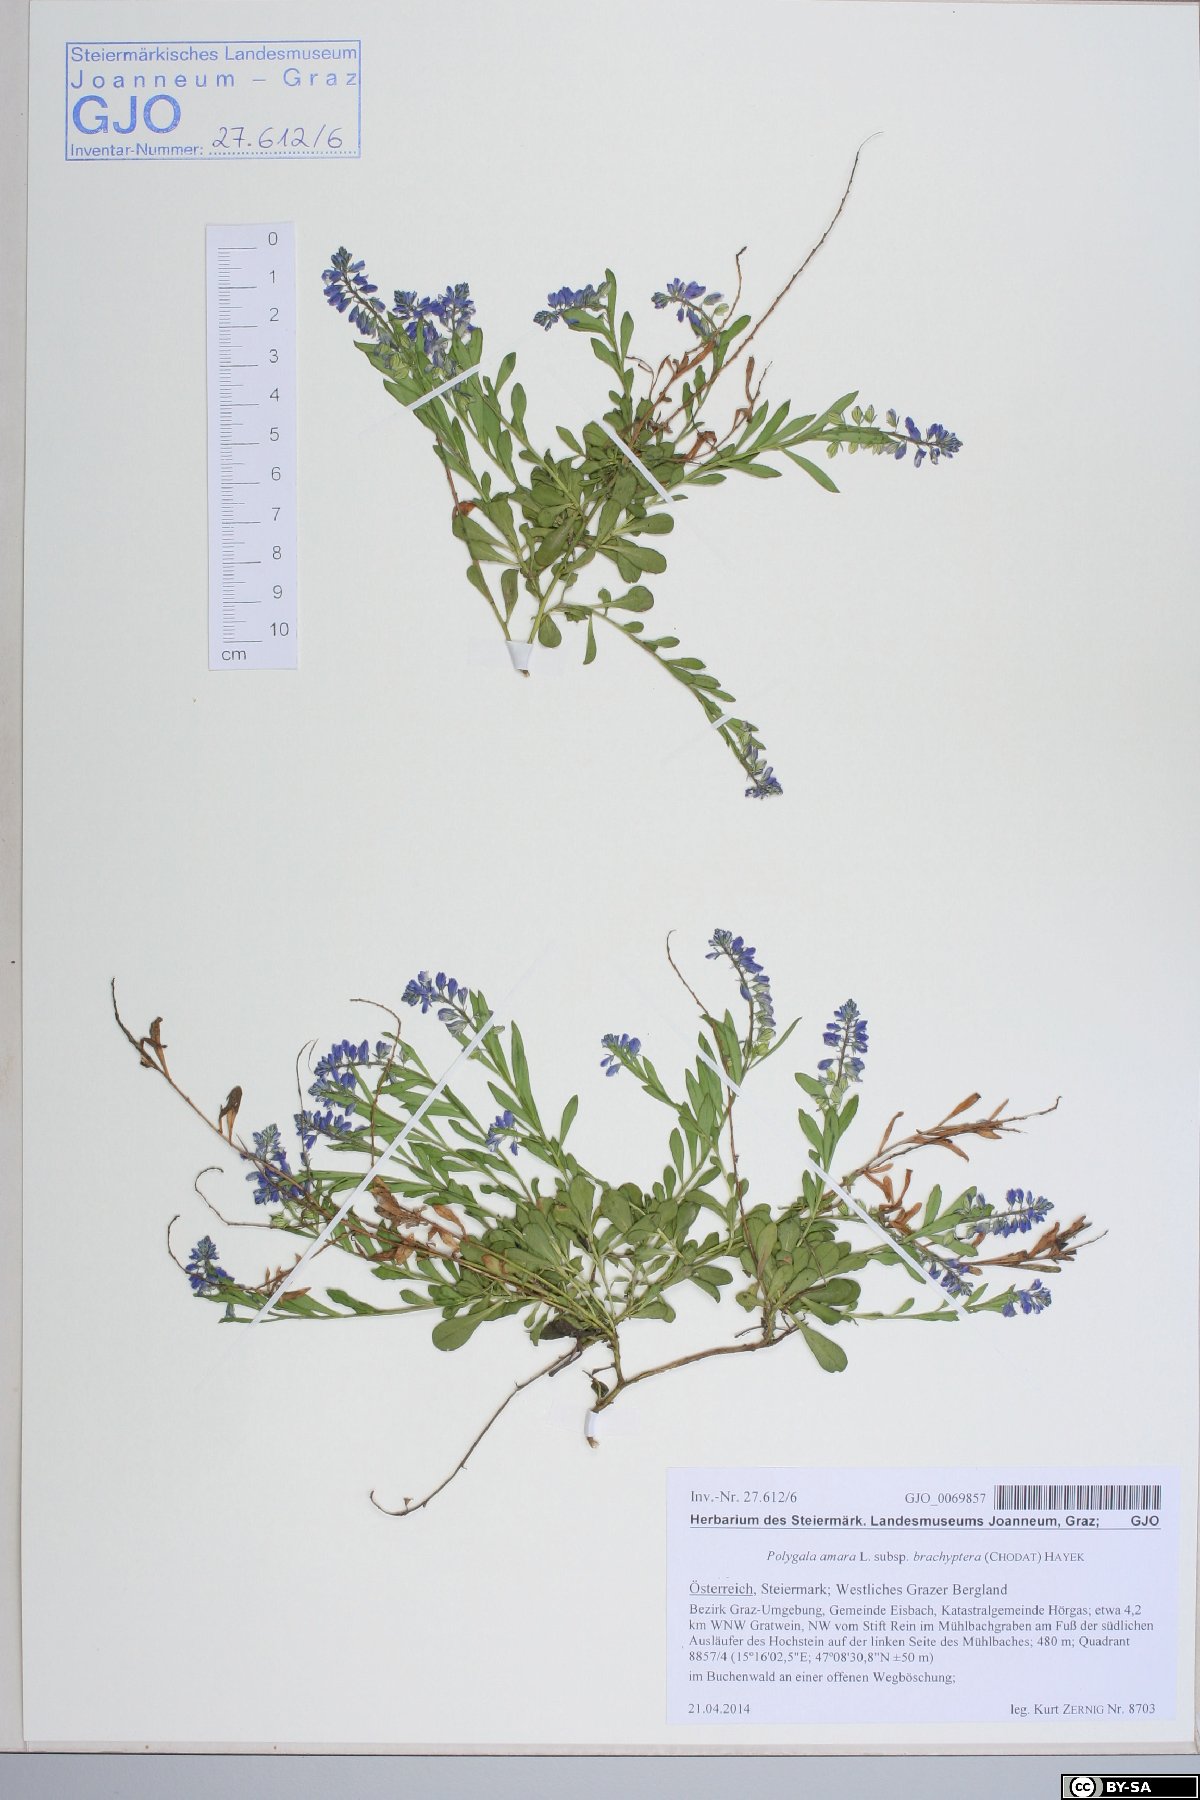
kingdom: Plantae
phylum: Tracheophyta
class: Magnoliopsida
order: Fabales
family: Polygalaceae
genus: Polygala
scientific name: Polygala amara
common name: Milkwort
